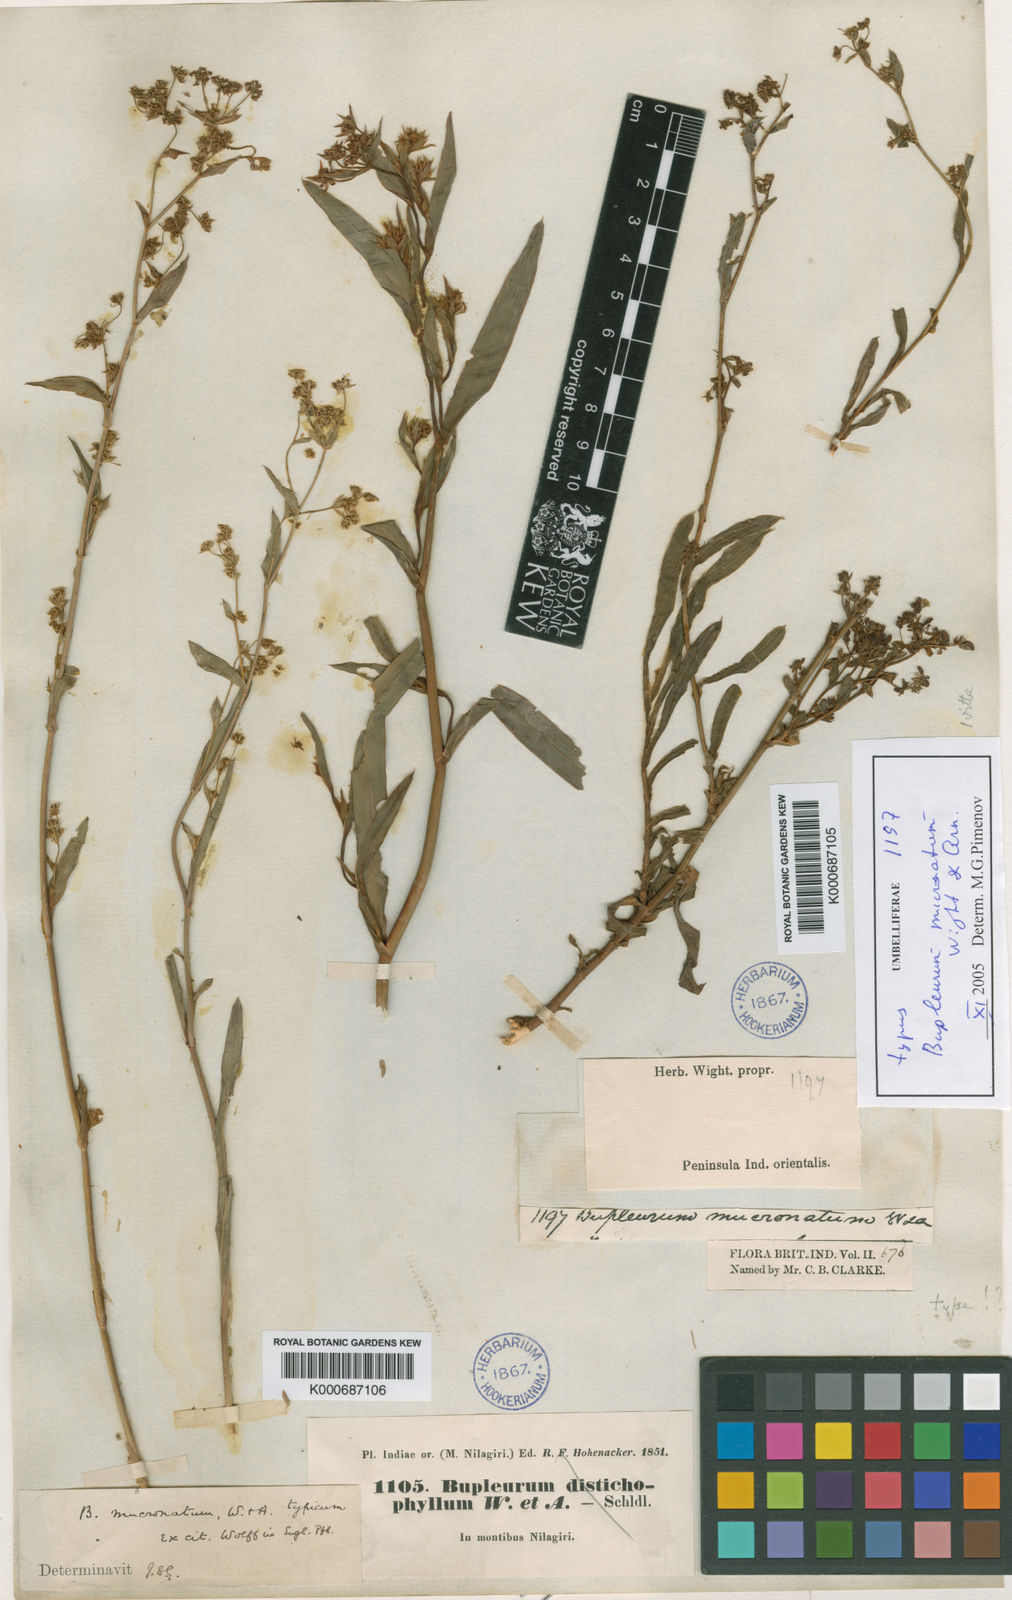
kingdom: Plantae
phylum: Tracheophyta
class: Magnoliopsida
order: Apiales
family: Apiaceae
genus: Bupleurum
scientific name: Bupleurum ramosissimum
